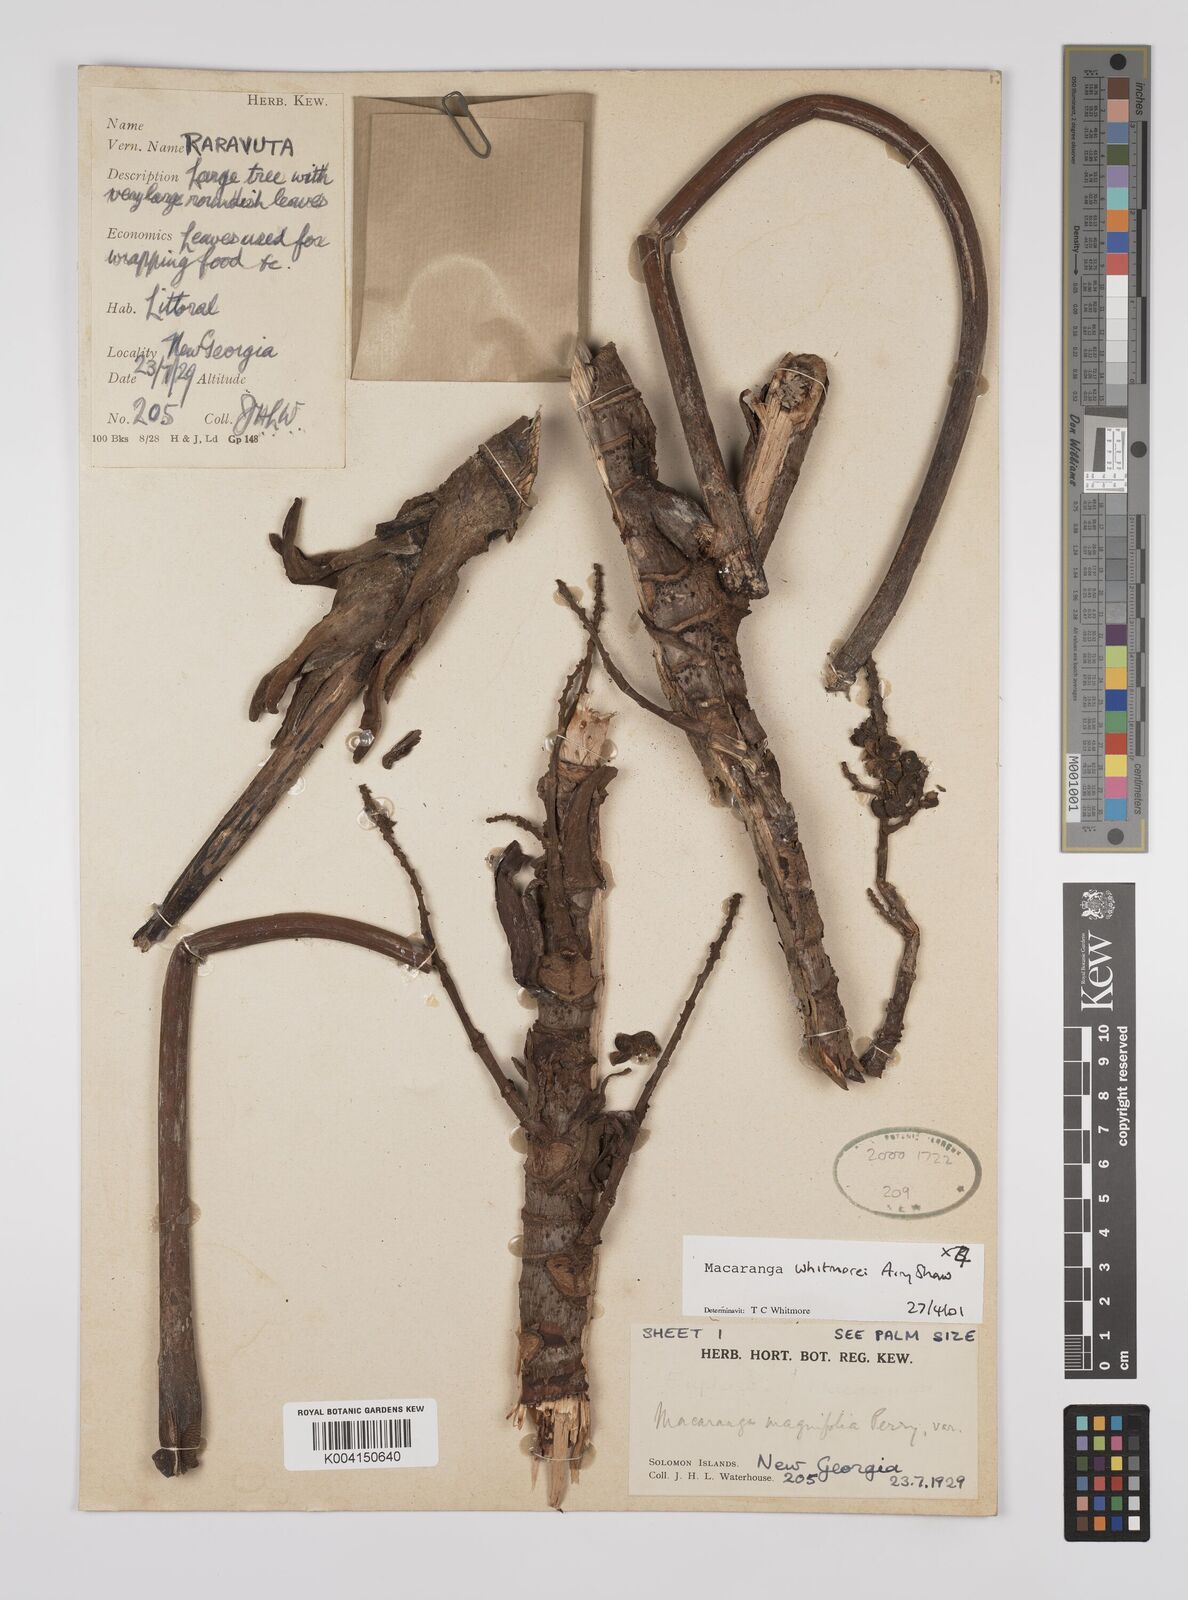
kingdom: Plantae
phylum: Tracheophyta
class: Magnoliopsida
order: Malpighiales
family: Euphorbiaceae
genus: Macaranga
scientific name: Macaranga whitmorei
